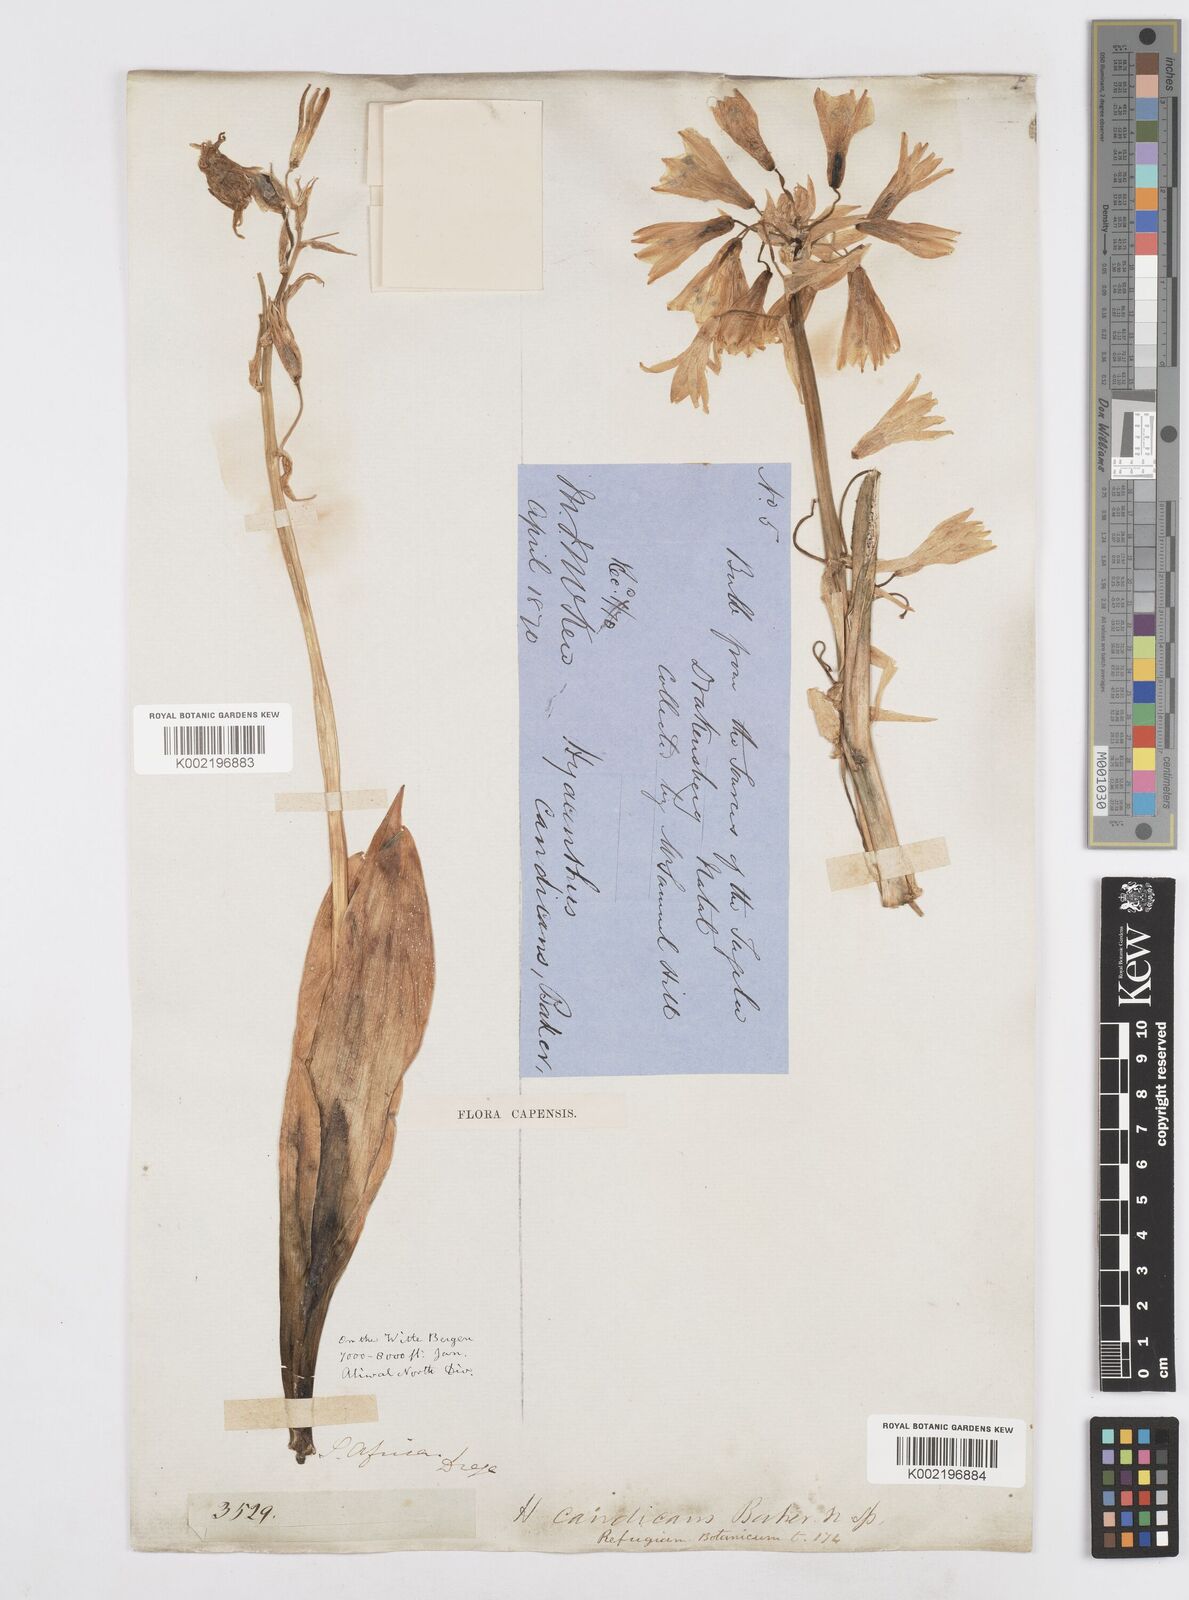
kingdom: Plantae
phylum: Tracheophyta
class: Liliopsida
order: Asparagales
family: Asparagaceae
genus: Ornithogalum
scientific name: Ornithogalum viridiflorum
